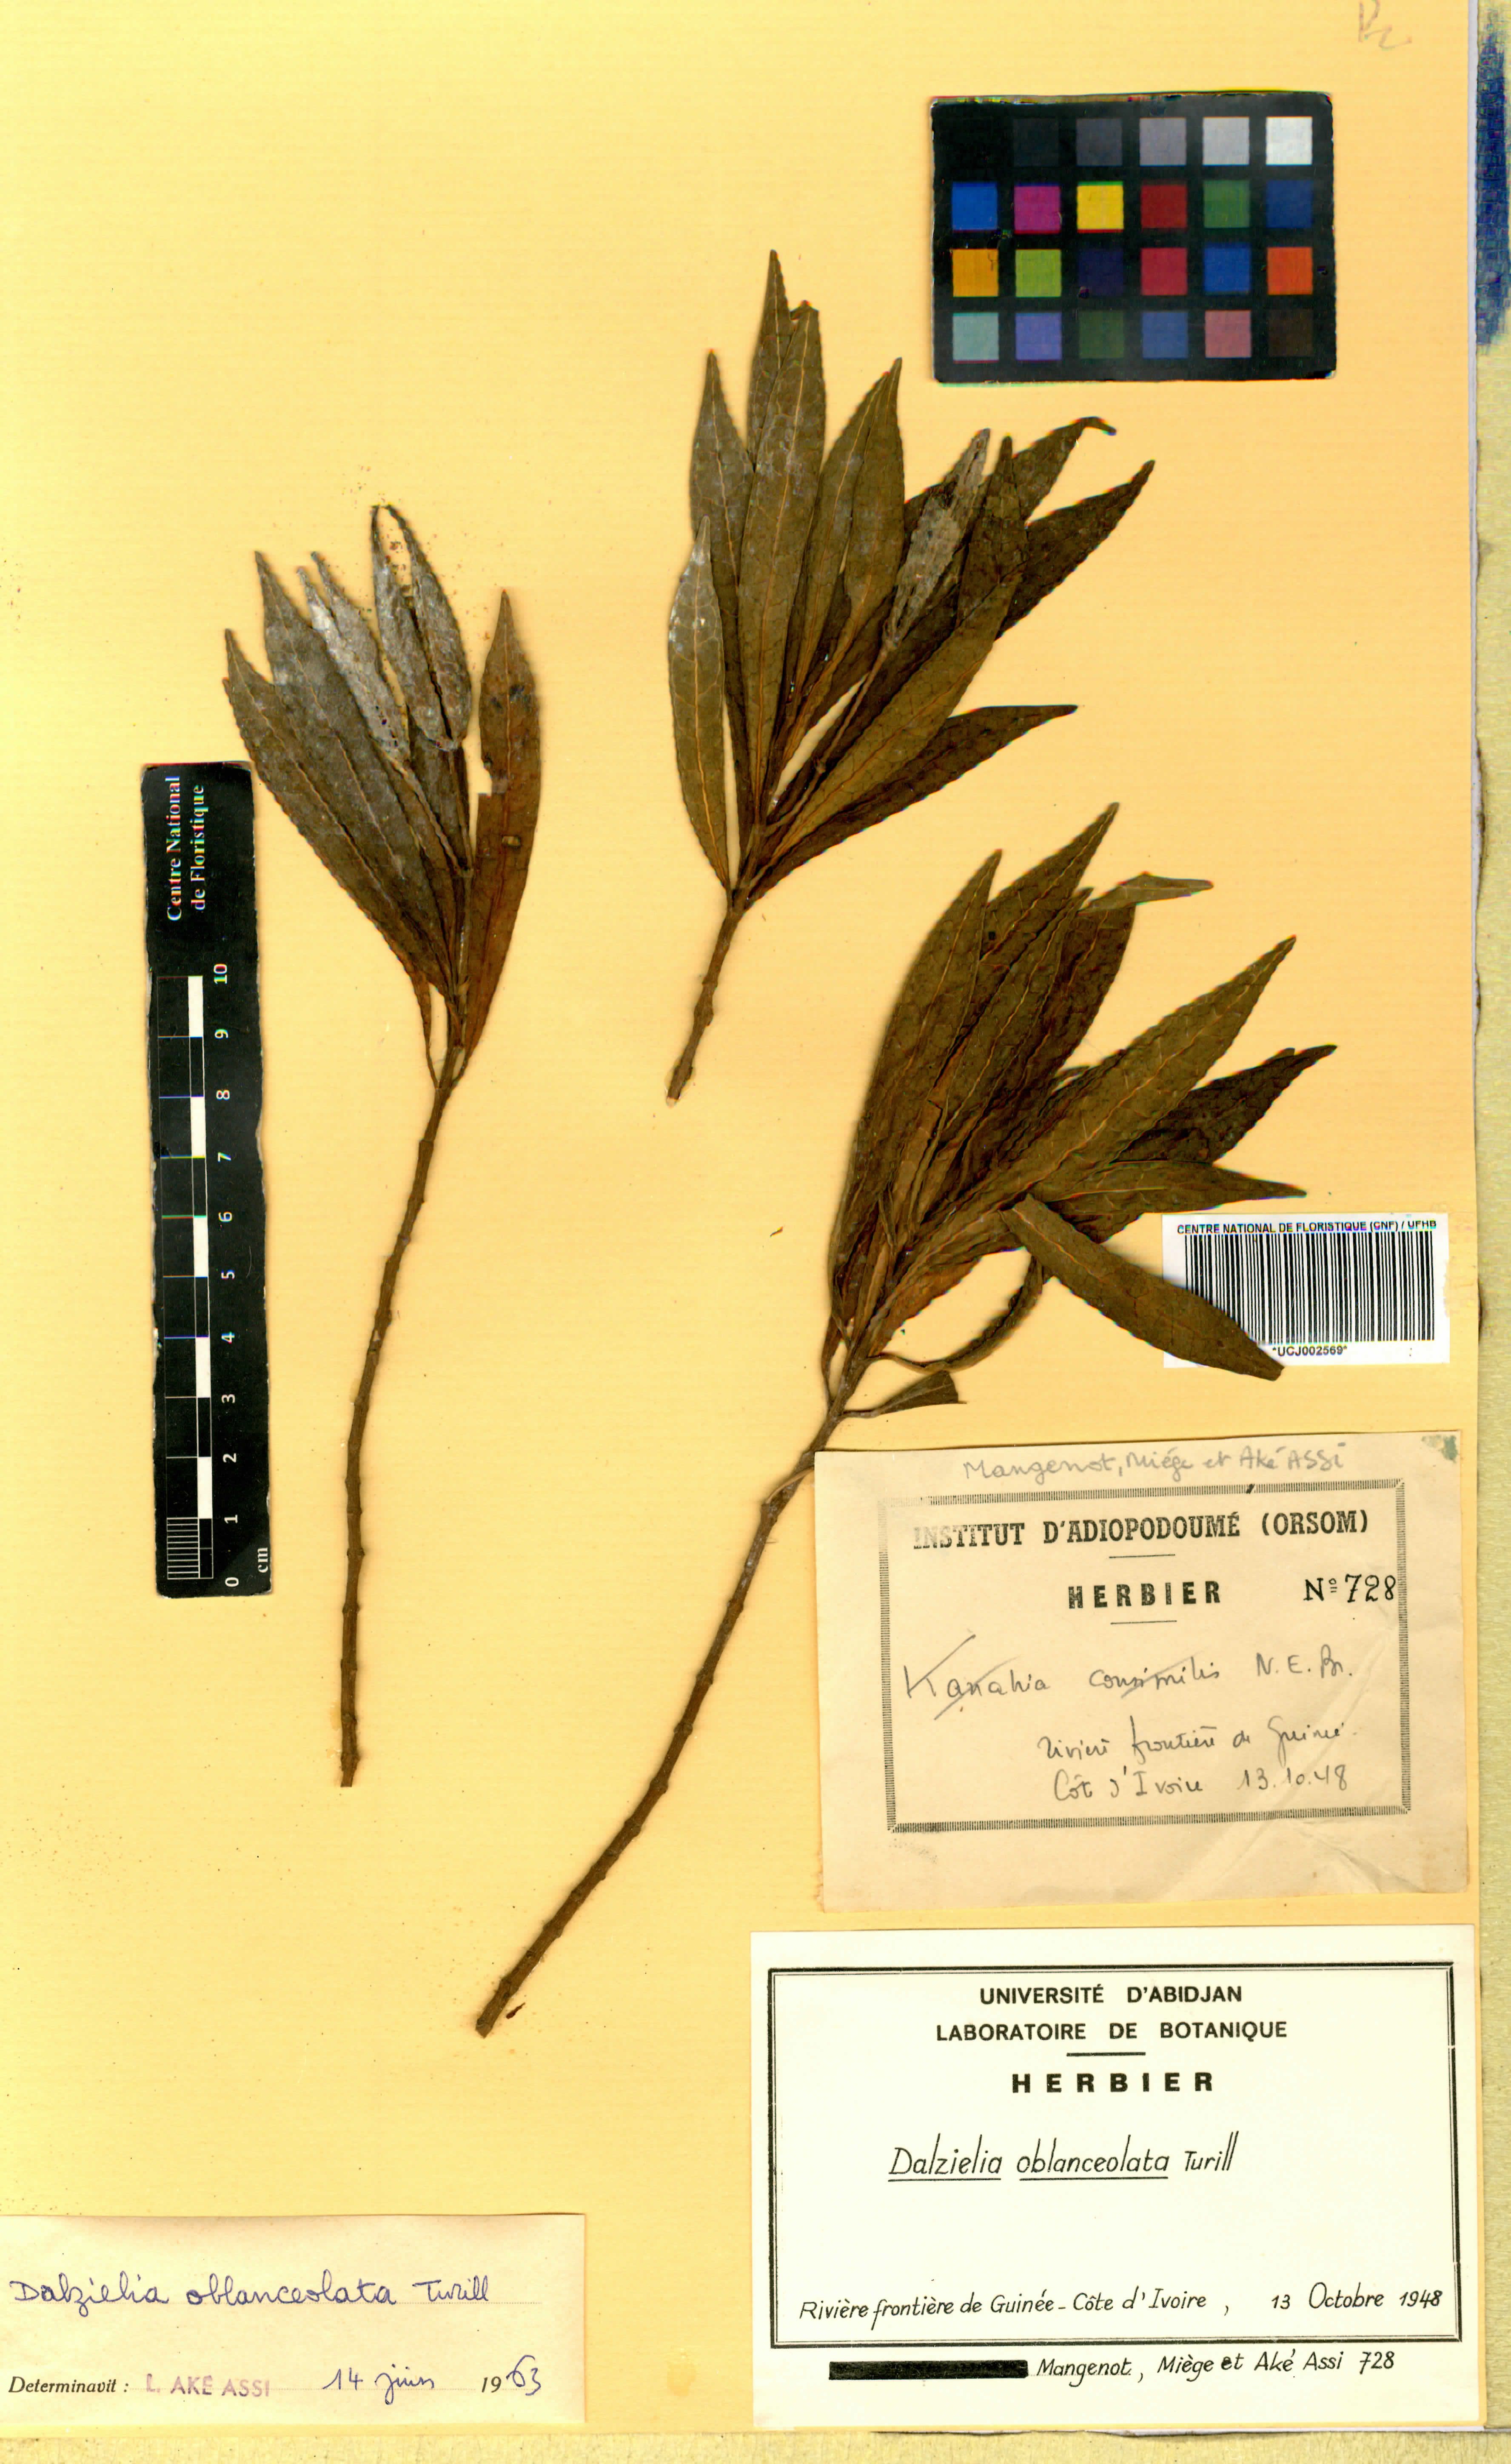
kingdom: Plantae
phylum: Tracheophyta
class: Magnoliopsida
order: Gentianales
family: Apocynaceae
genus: Dalzielia
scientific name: Dalzielia oblanceolata
